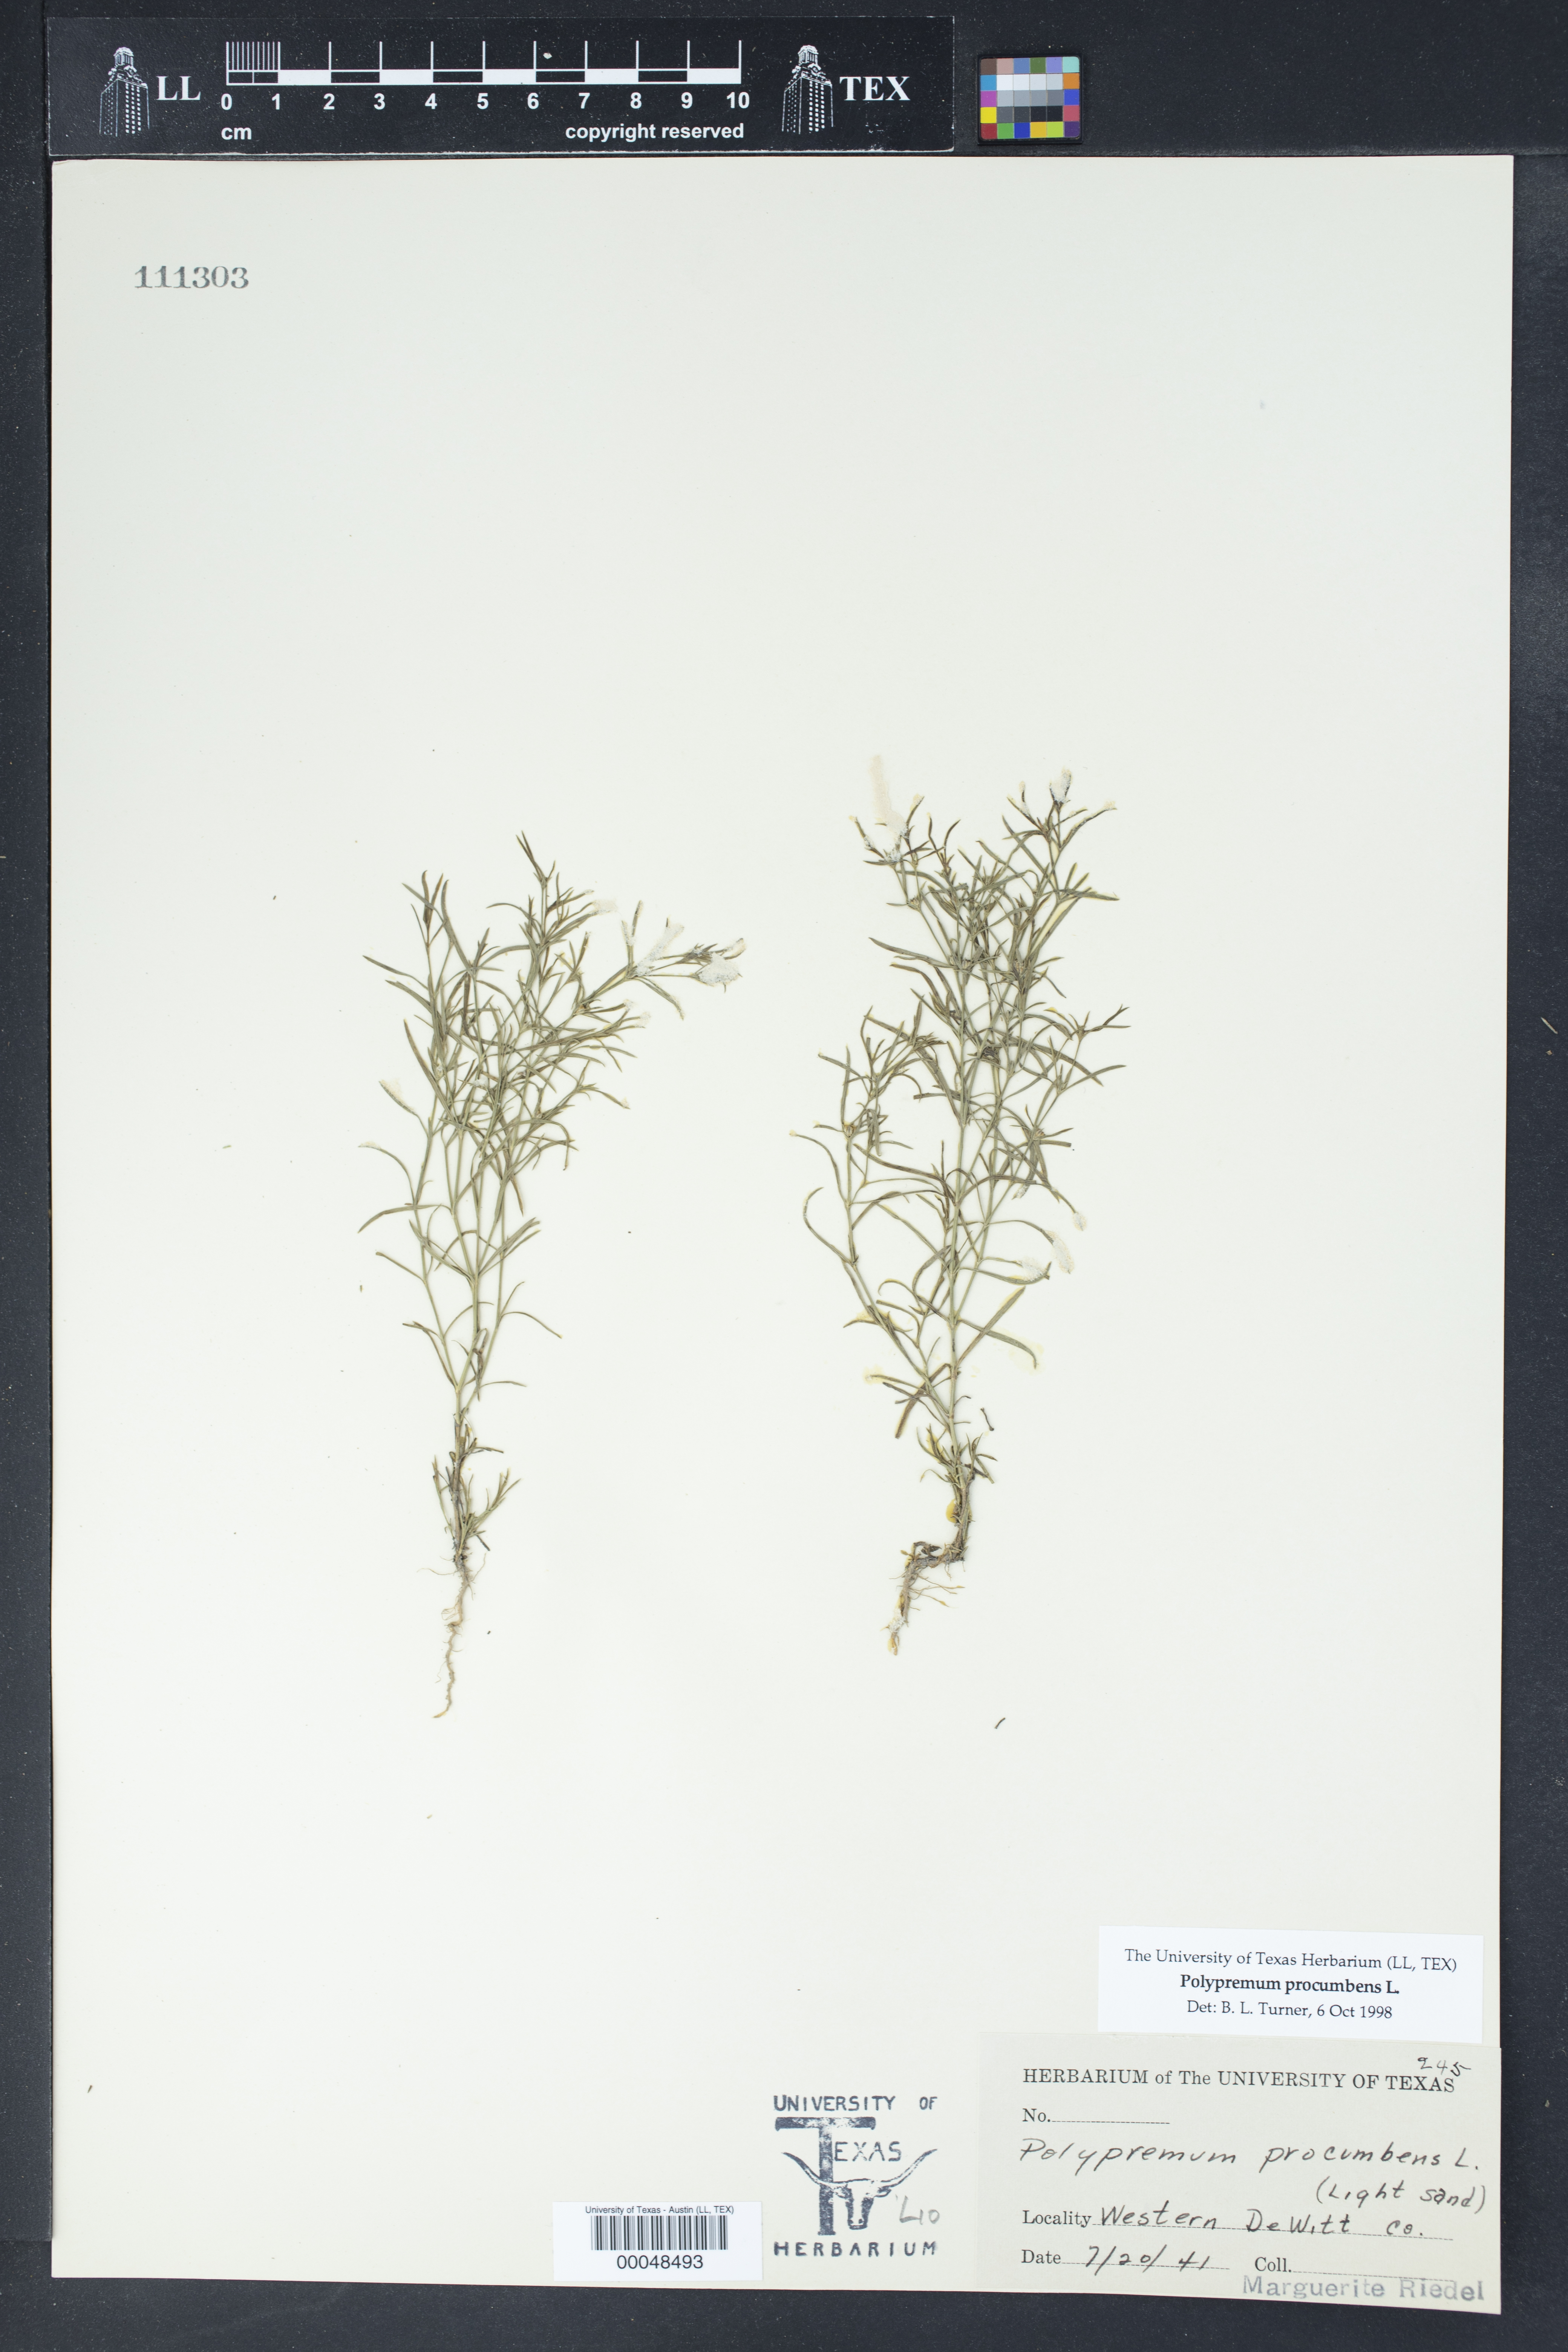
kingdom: Plantae
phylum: Tracheophyta
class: Magnoliopsida
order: Lamiales
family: Tetrachondraceae
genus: Polypremum
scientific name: Polypremum procumbens
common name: Juniper-leaf
